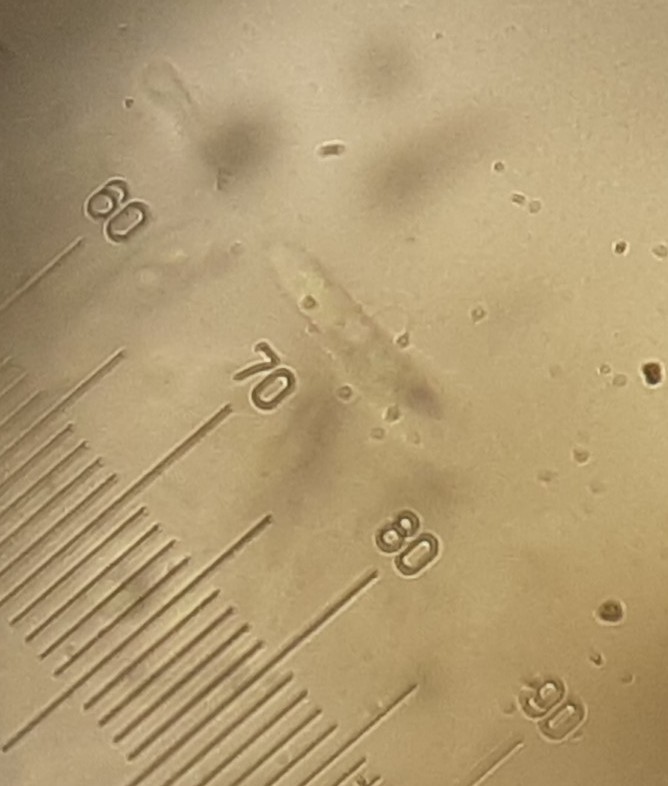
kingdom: Fungi
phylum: Ascomycota
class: Leotiomycetes
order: Helotiales
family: Cenangiaceae
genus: Trochila
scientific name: Trochila craterium
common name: vedbend-lågskive
